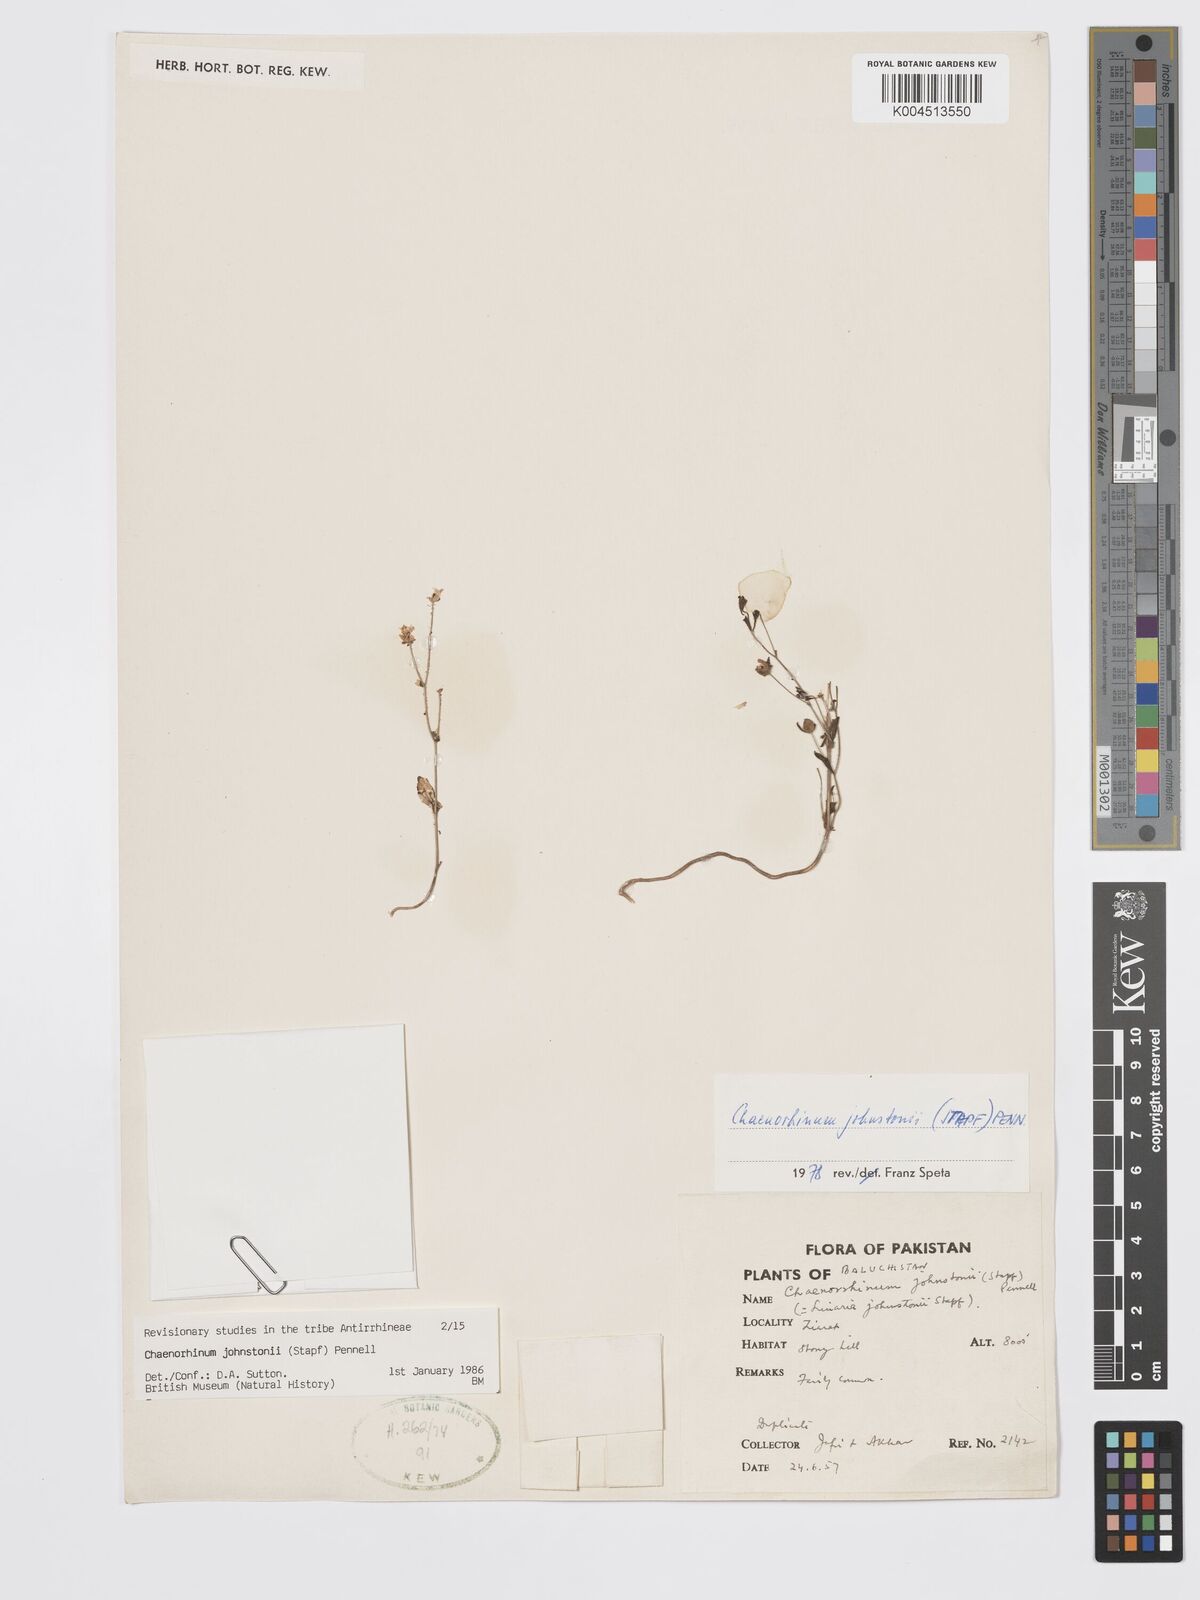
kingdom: Plantae
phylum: Tracheophyta
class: Magnoliopsida
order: Lamiales
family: Plantaginaceae
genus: Chaenorhinum
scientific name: Chaenorhinum johnstonii
